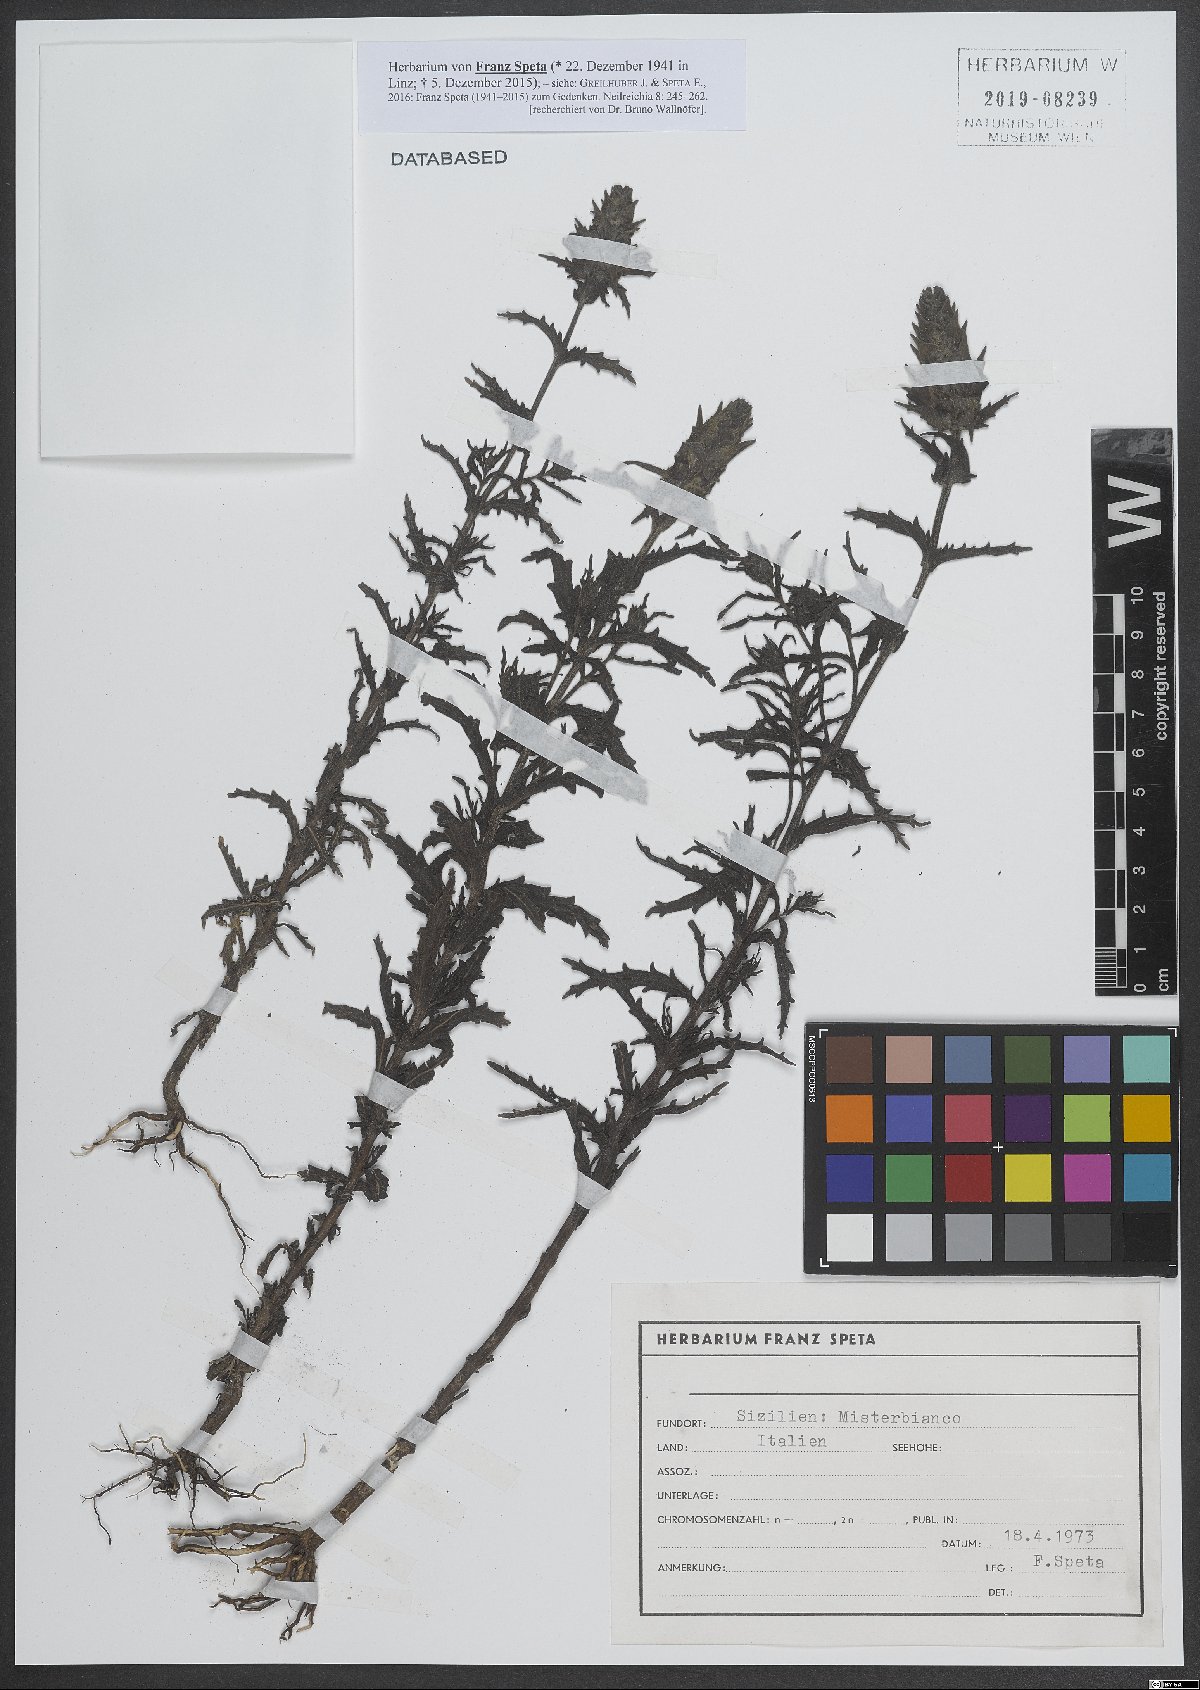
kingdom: Plantae
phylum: Tracheophyta
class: Magnoliopsida
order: Lamiales
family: Orobanchaceae
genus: Bellardia
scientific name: Bellardia trixago
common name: Mediterranean lineseed
